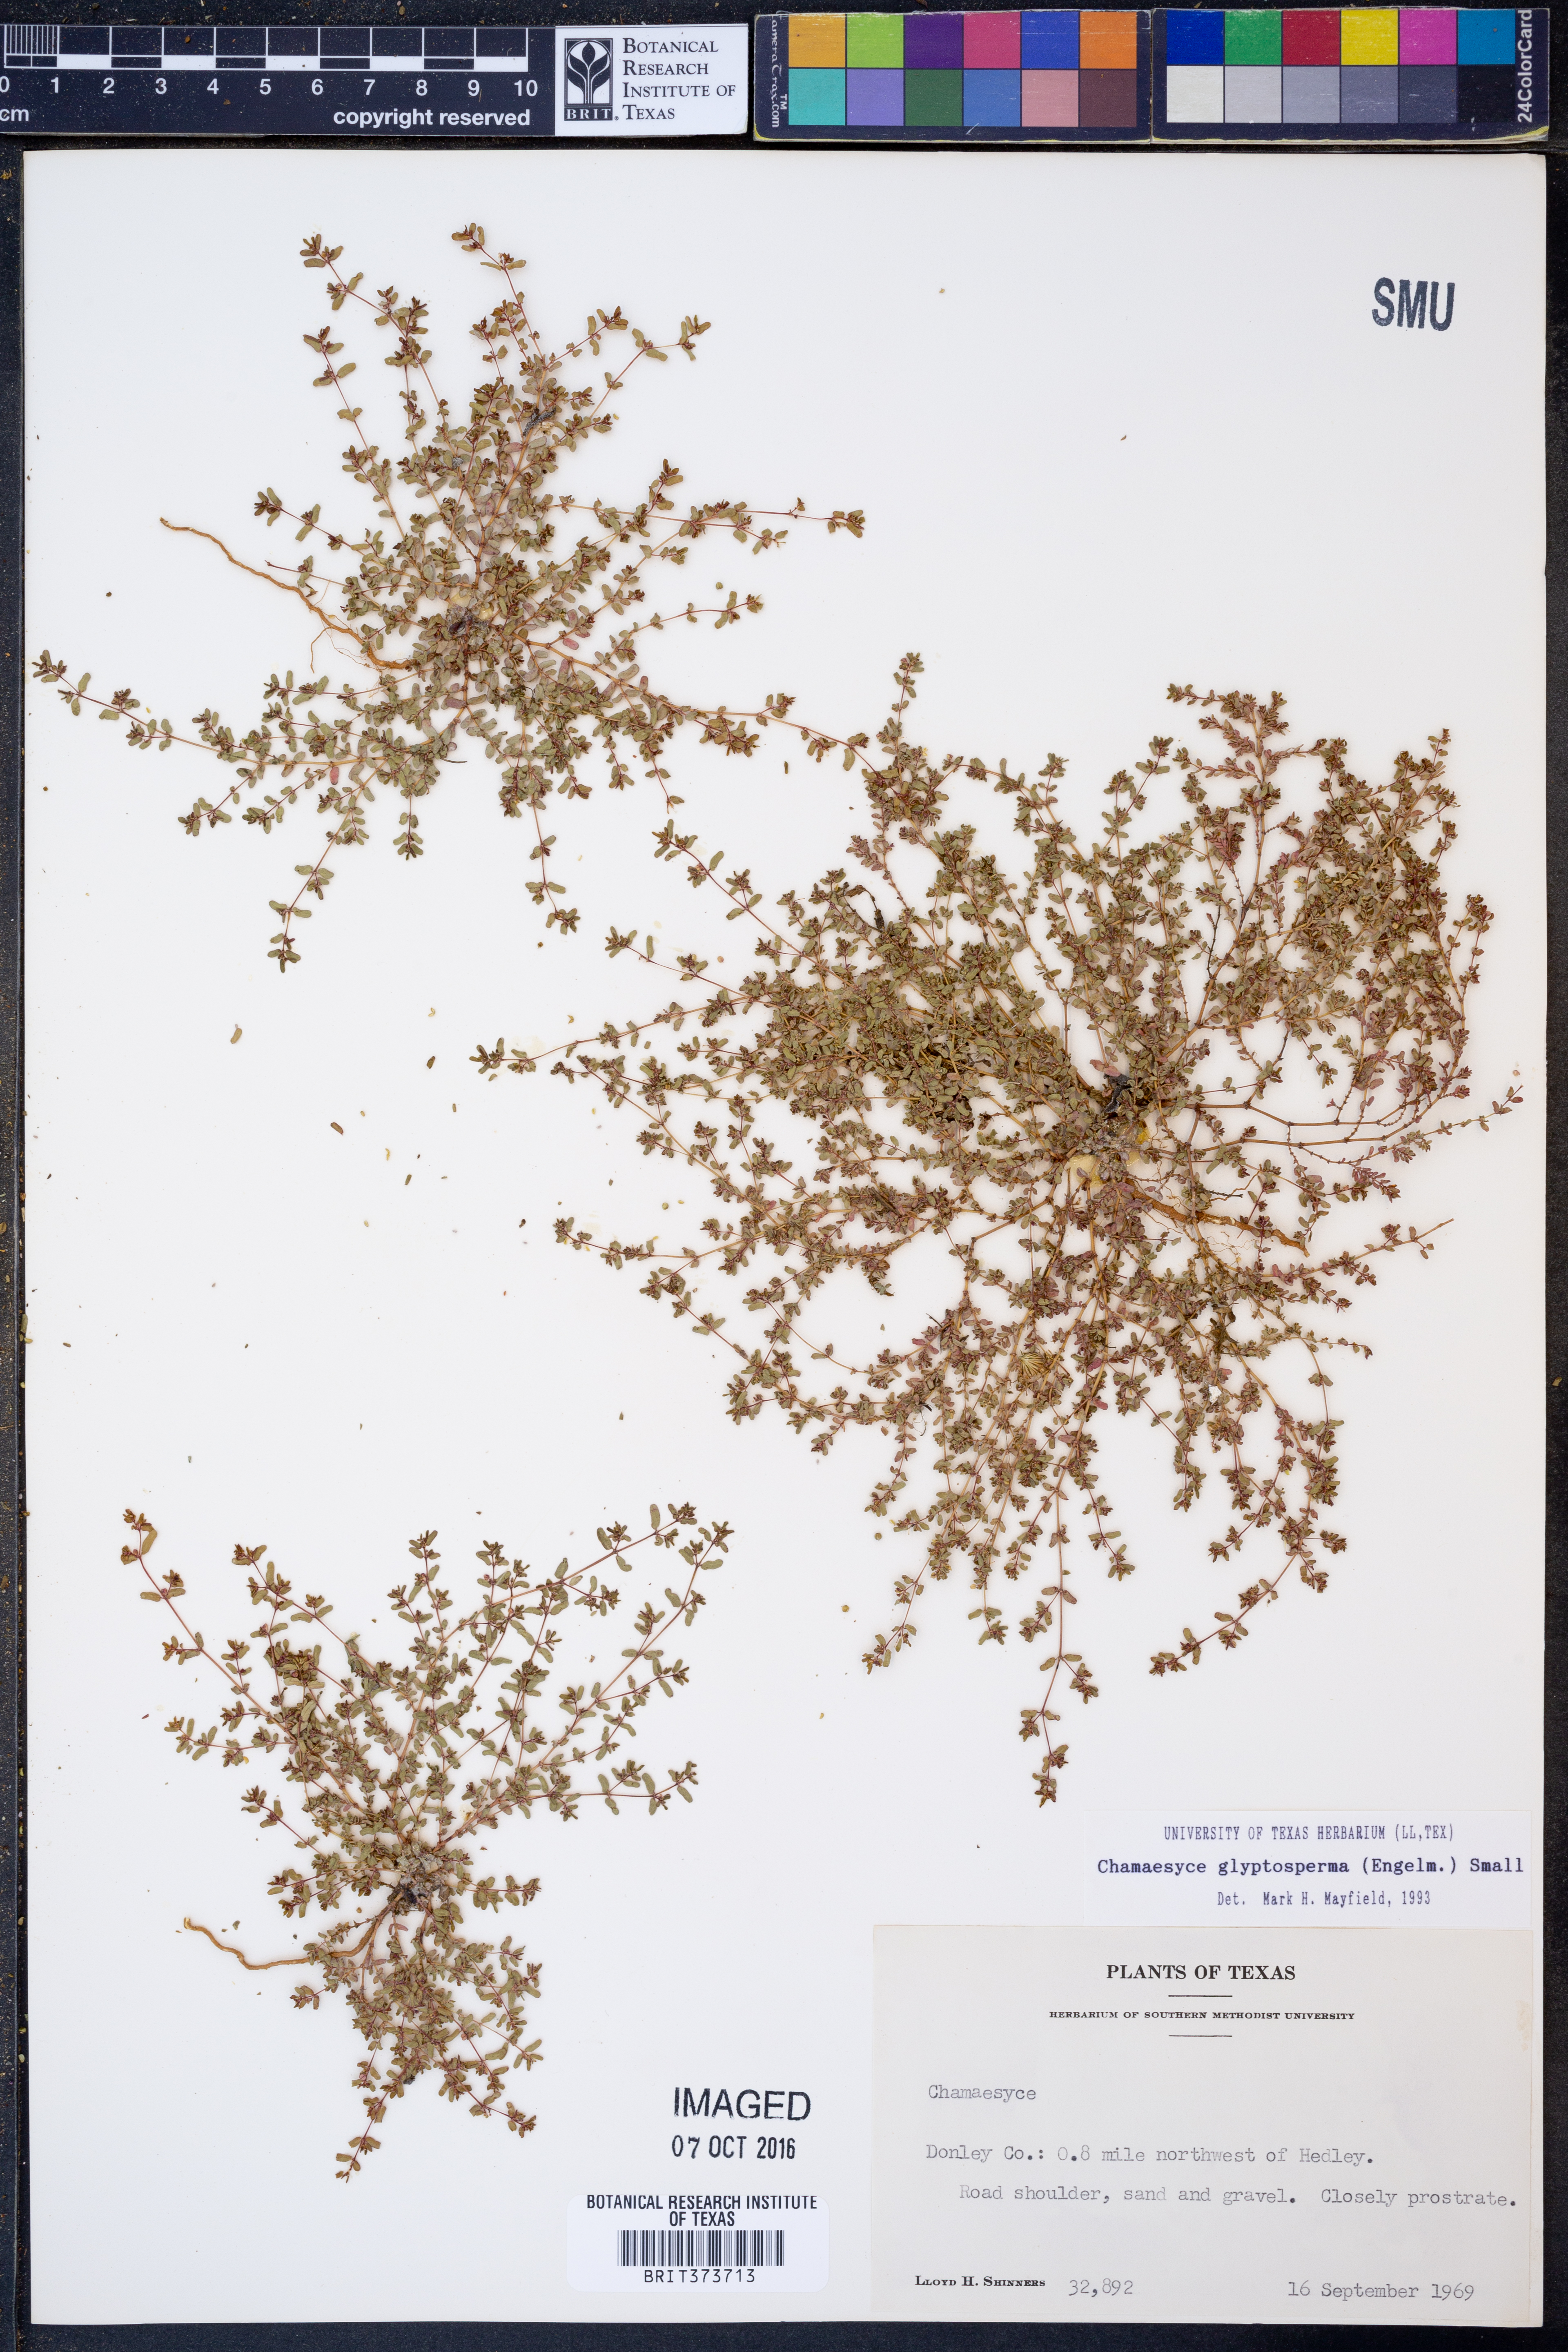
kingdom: Plantae
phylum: Tracheophyta
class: Magnoliopsida
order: Malpighiales
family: Euphorbiaceae
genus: Euphorbia
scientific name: Euphorbia glyptosperma
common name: Corrugate-seeded spurge
